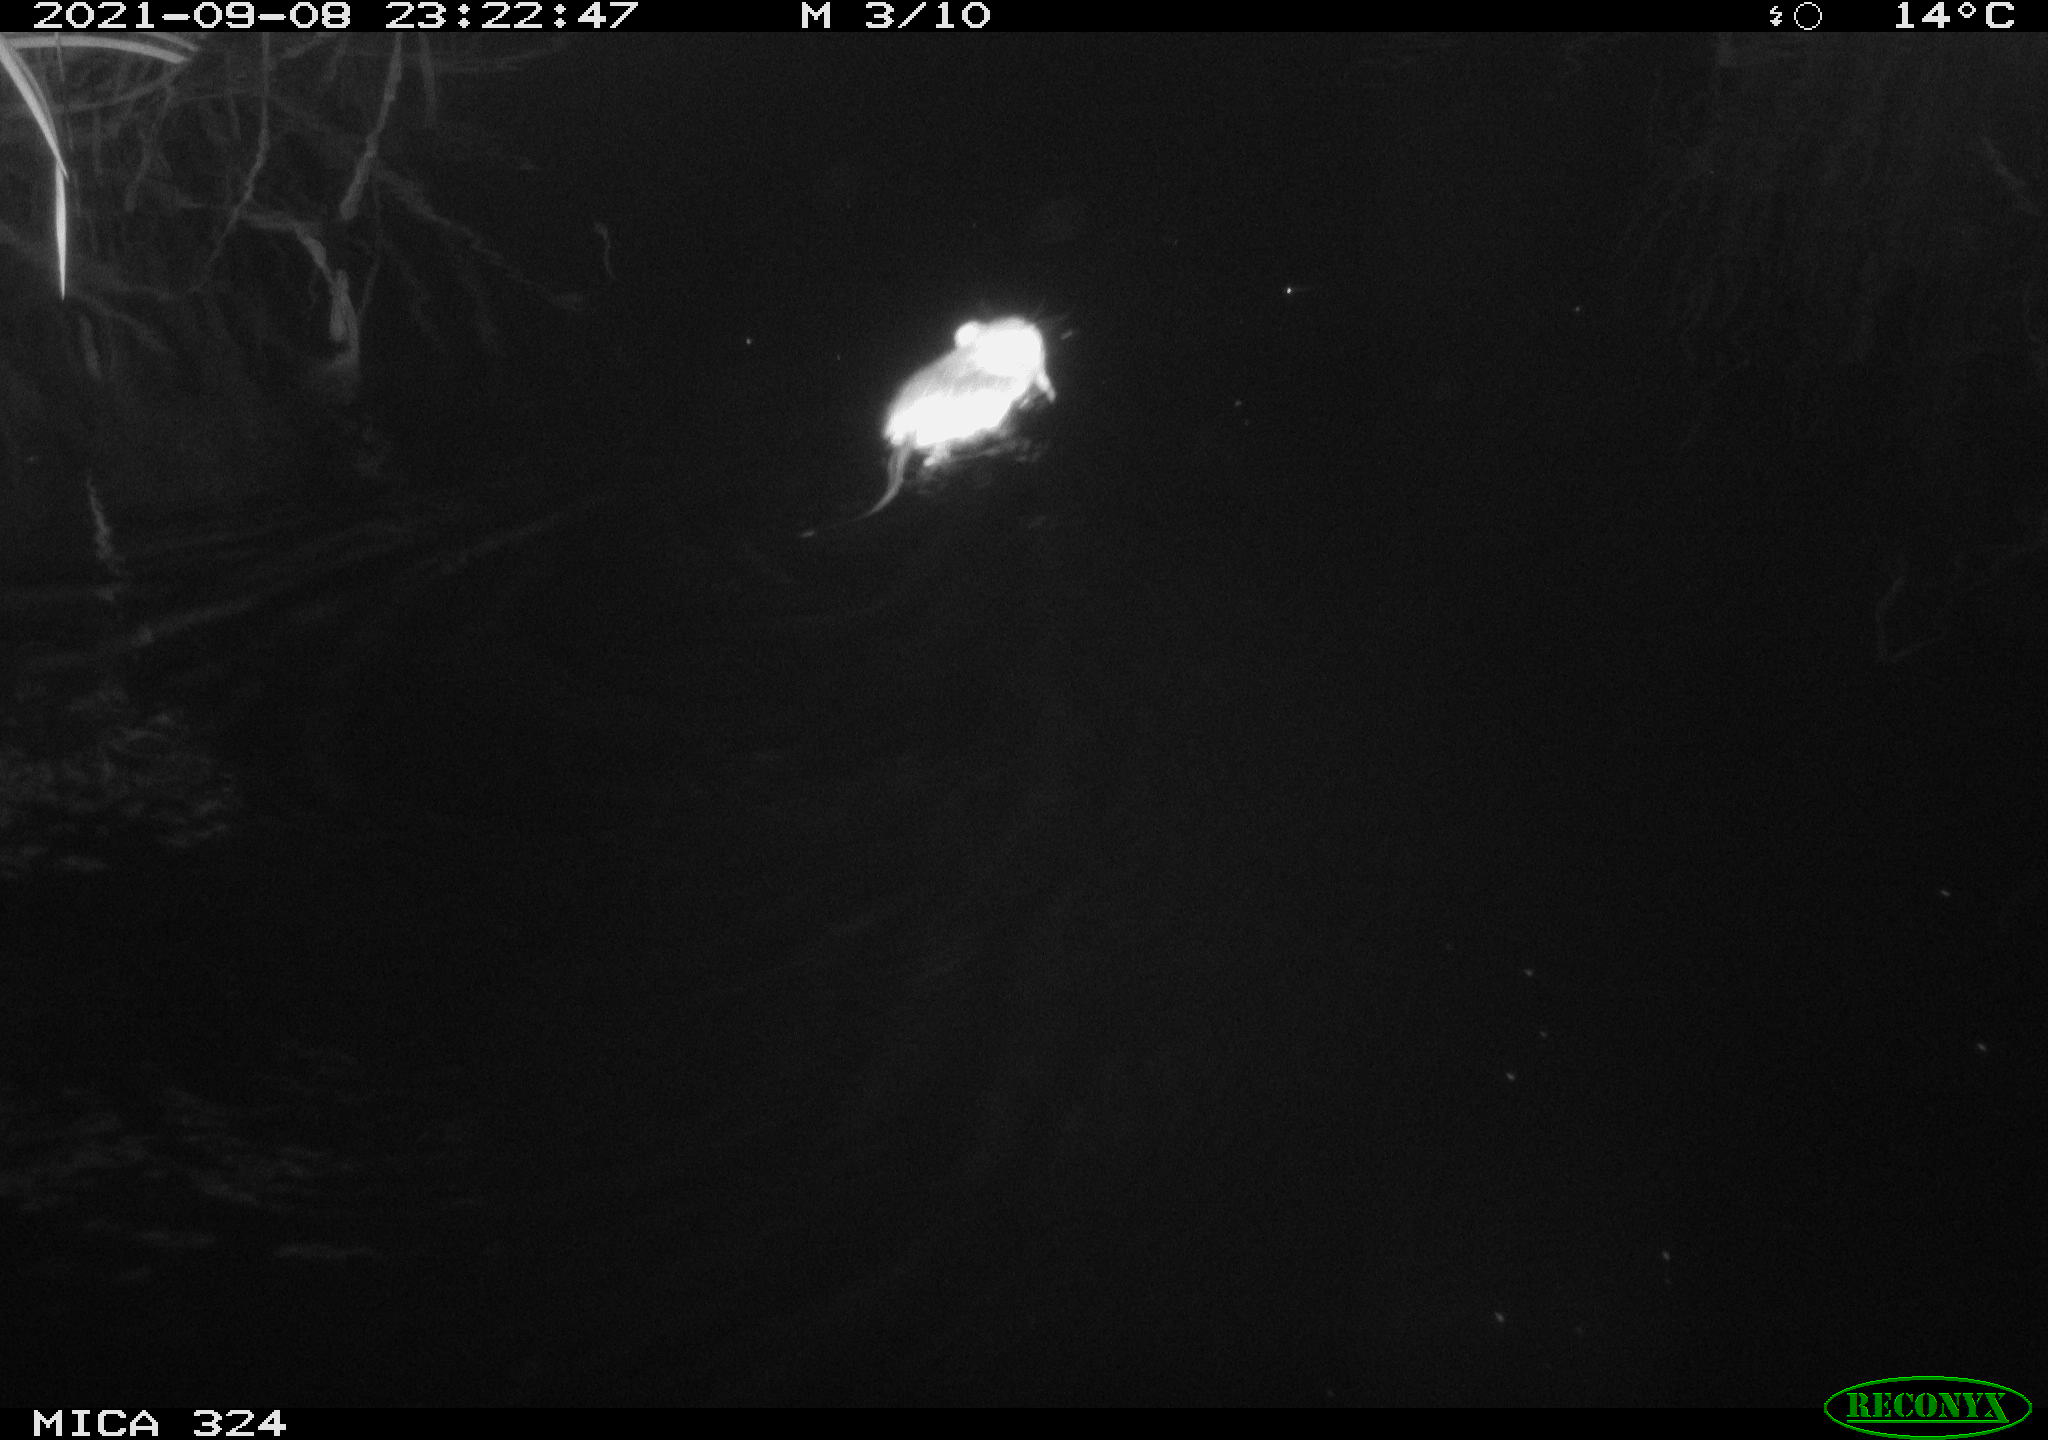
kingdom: Animalia
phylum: Chordata
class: Mammalia
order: Rodentia
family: Cricetidae
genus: Ondatra
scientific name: Ondatra zibethicus
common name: Muskrat
